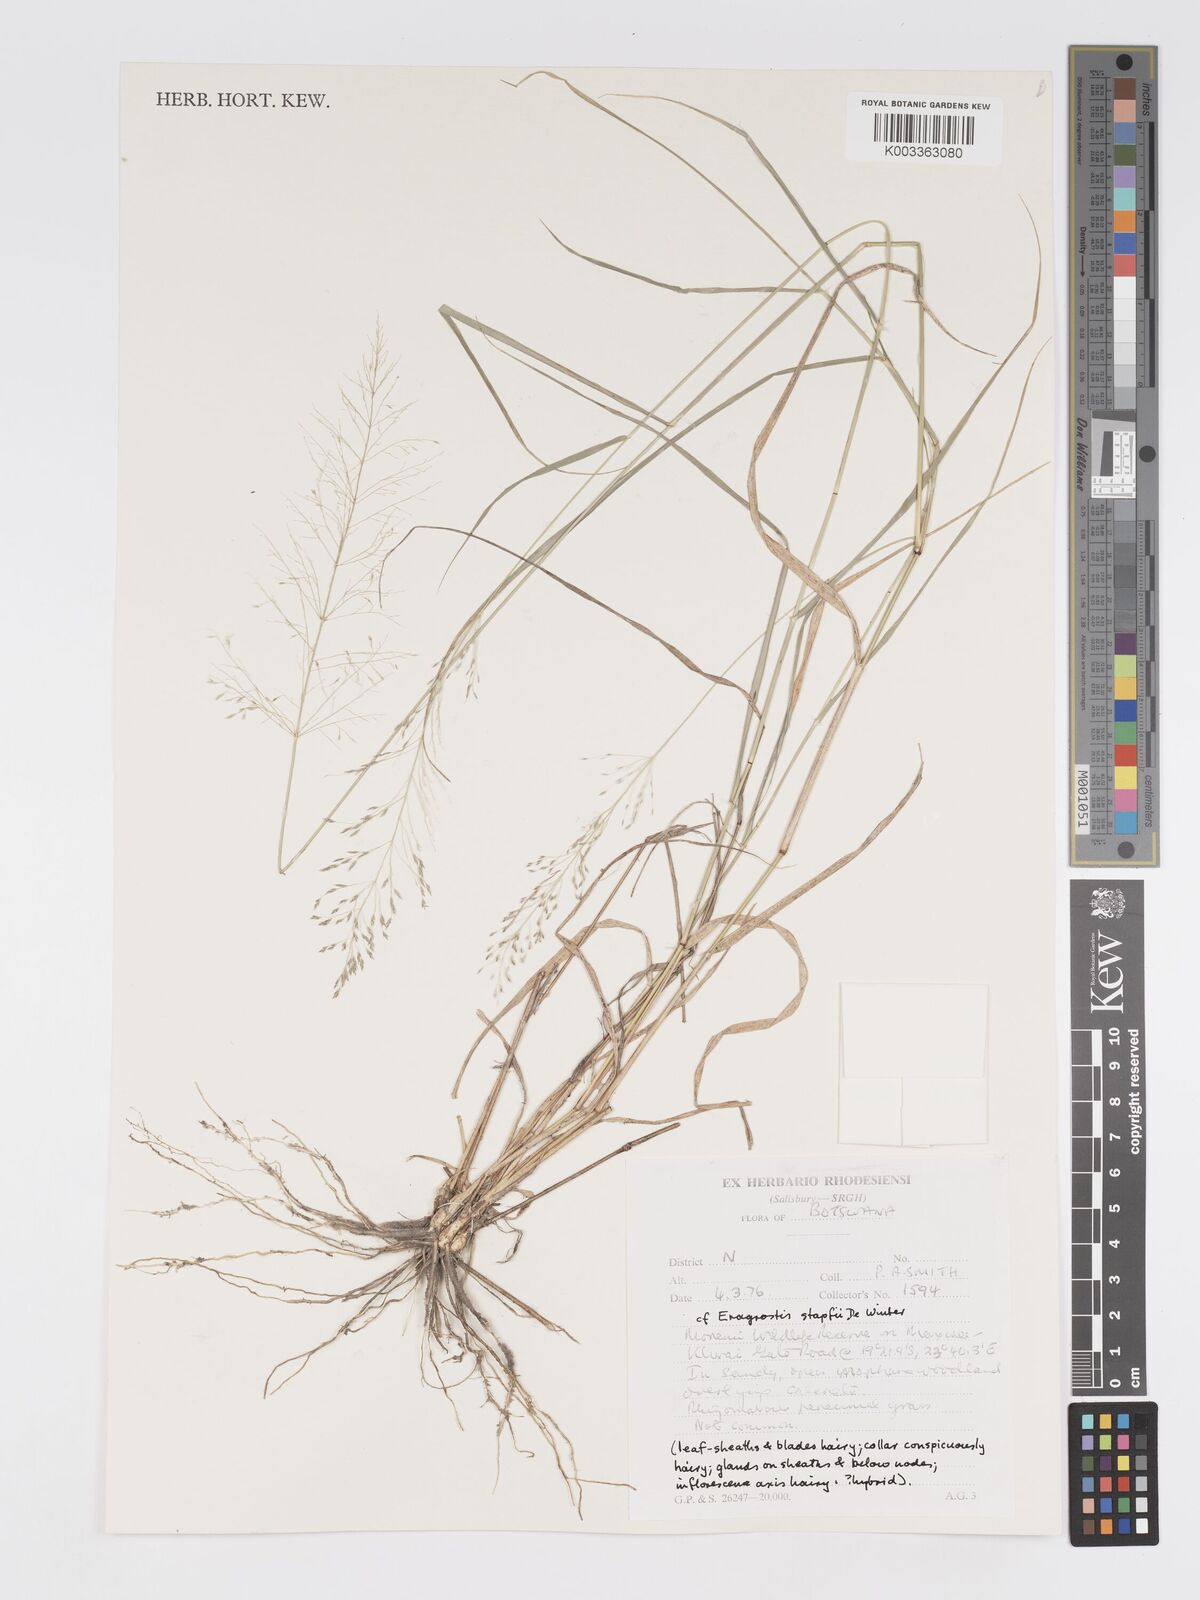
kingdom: Plantae
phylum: Tracheophyta
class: Liliopsida
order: Poales
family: Poaceae
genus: Eragrostis
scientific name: Eragrostis cylindriflora
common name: Cylinderflower lovegrass
